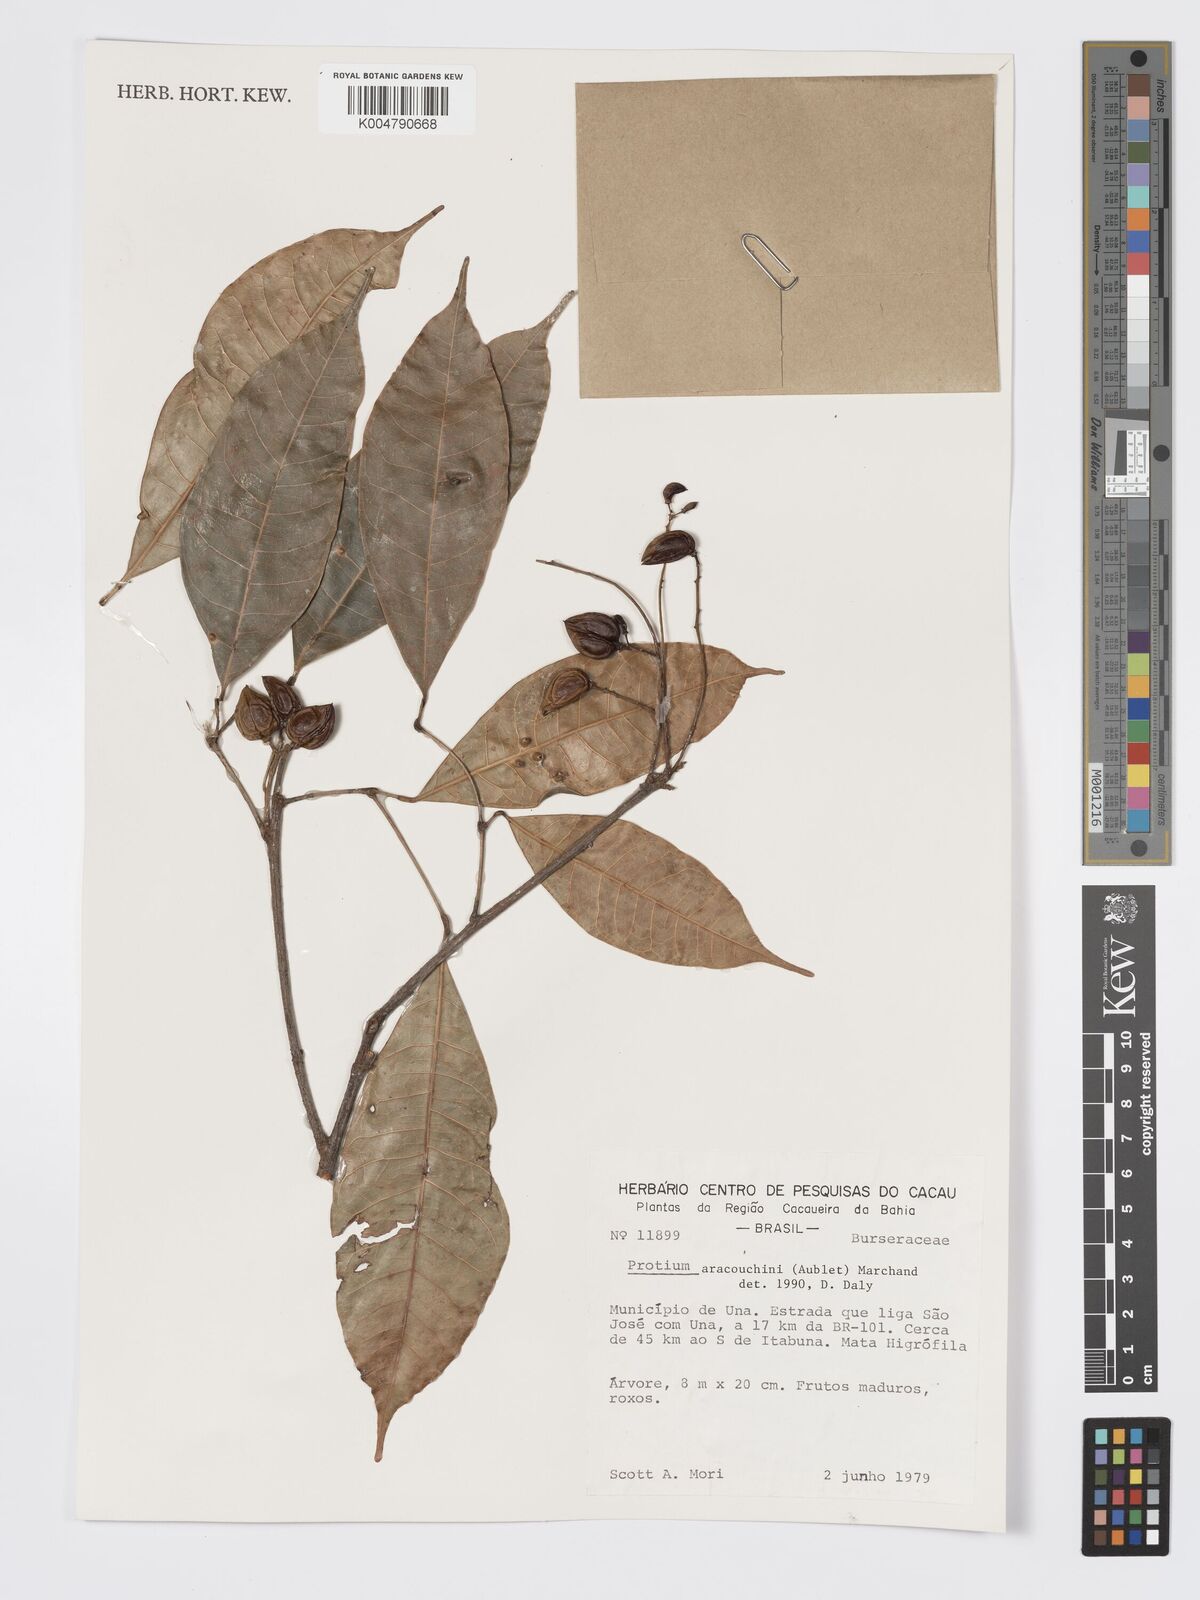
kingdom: Plantae
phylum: Tracheophyta
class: Magnoliopsida
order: Sapindales
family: Burseraceae
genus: Protium
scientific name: Protium aracouchini
